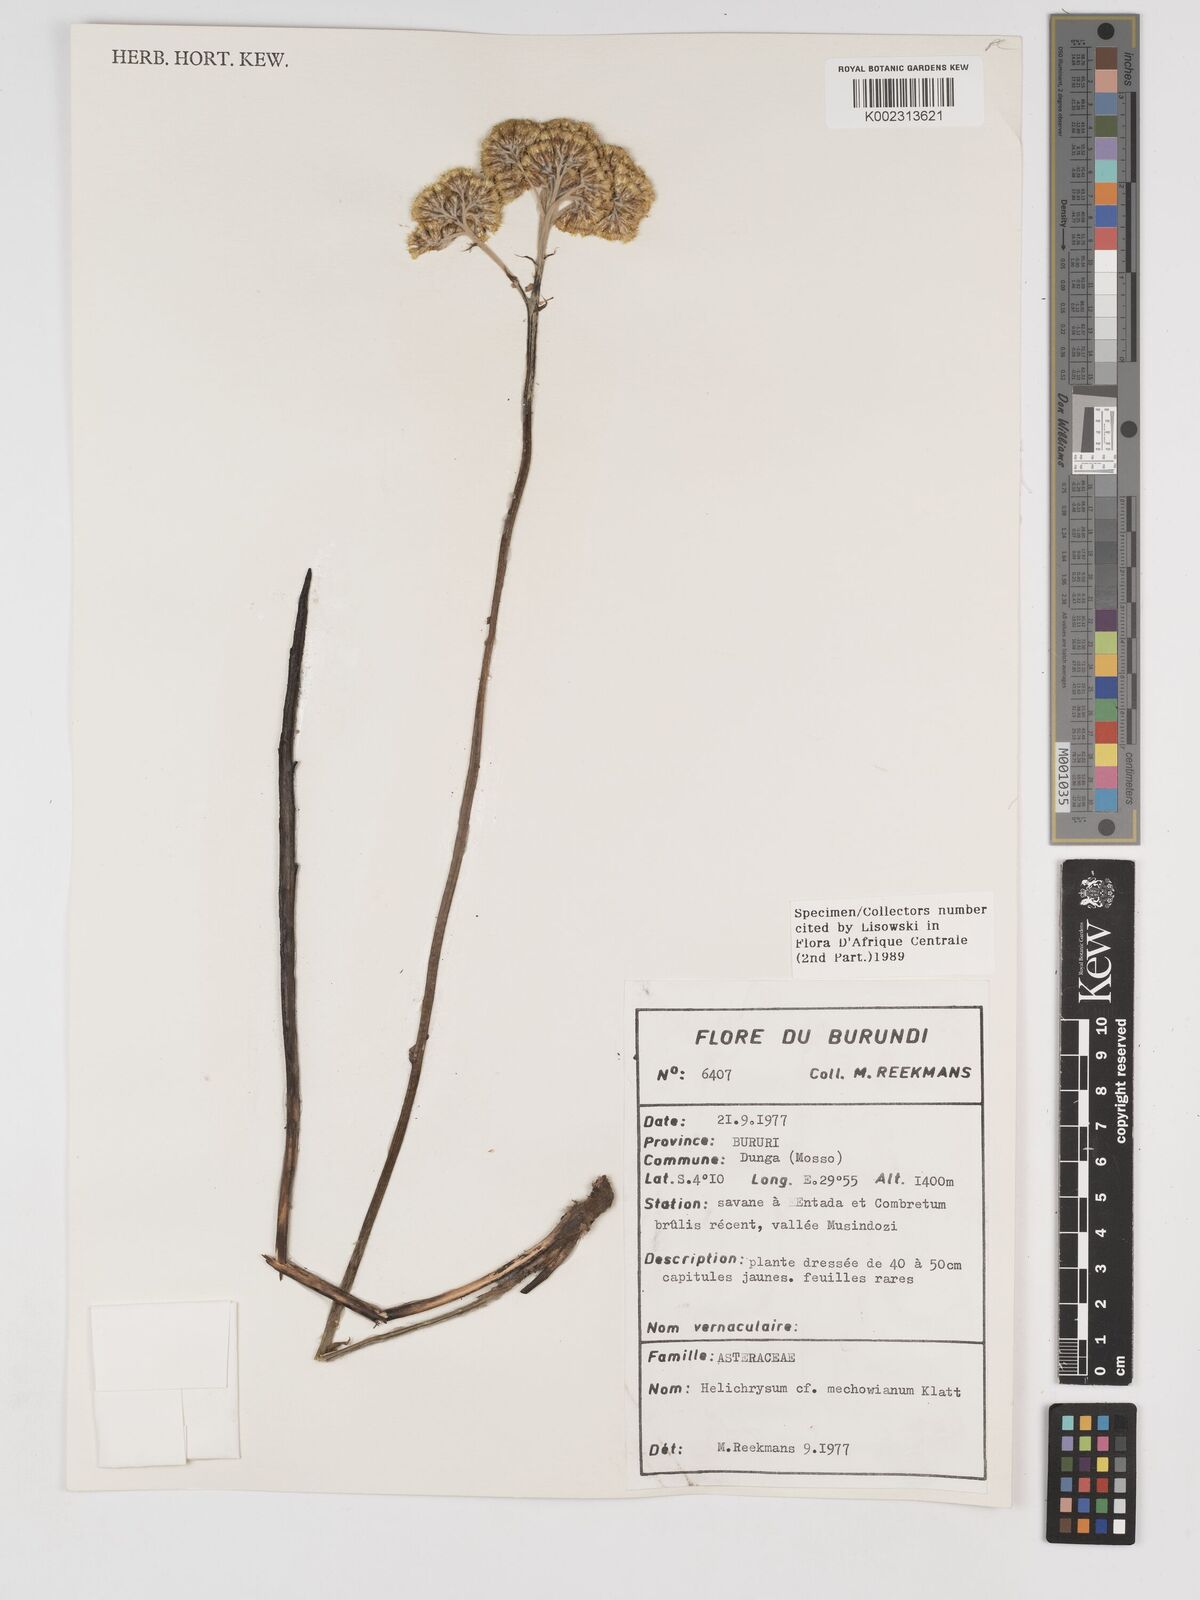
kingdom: Plantae
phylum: Tracheophyta
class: Magnoliopsida
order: Asterales
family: Asteraceae
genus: Helichrysum
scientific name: Helichrysum mechowianum
